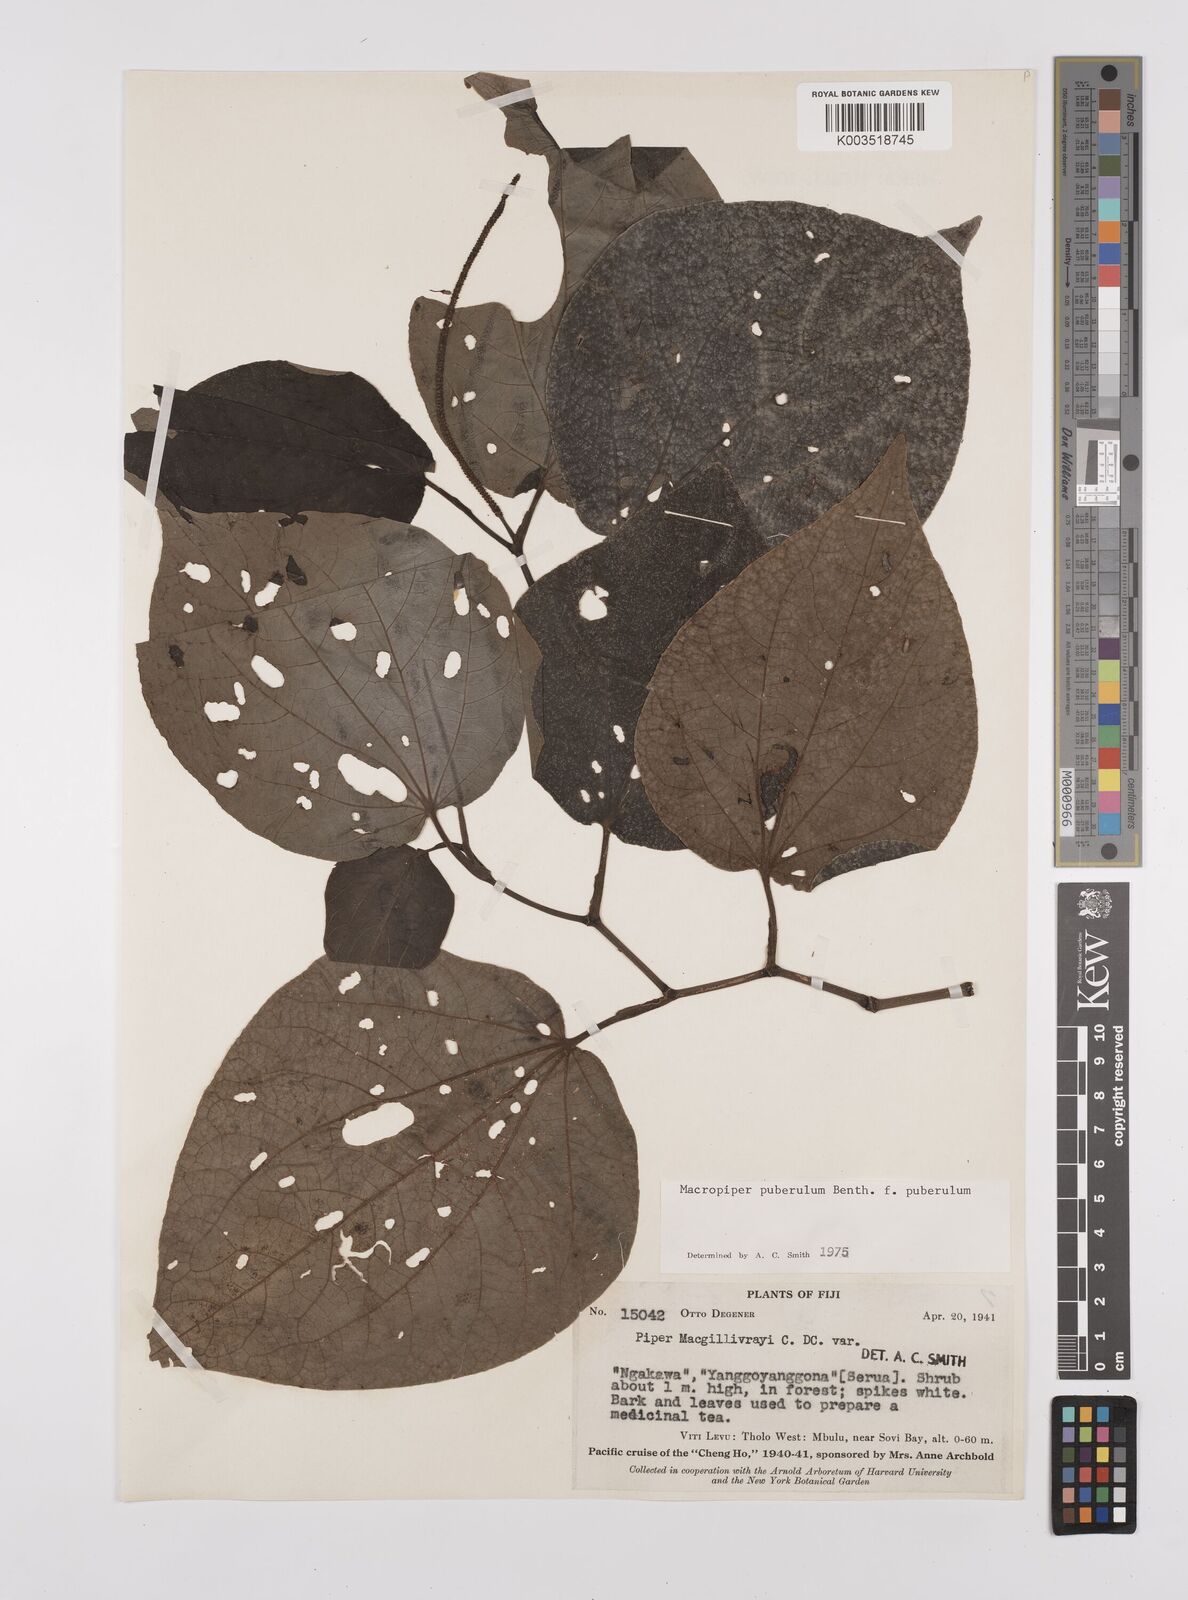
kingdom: Plantae
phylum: Tracheophyta
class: Magnoliopsida
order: Piperales
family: Piperaceae
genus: Macropiper
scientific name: Macropiper puberulum
